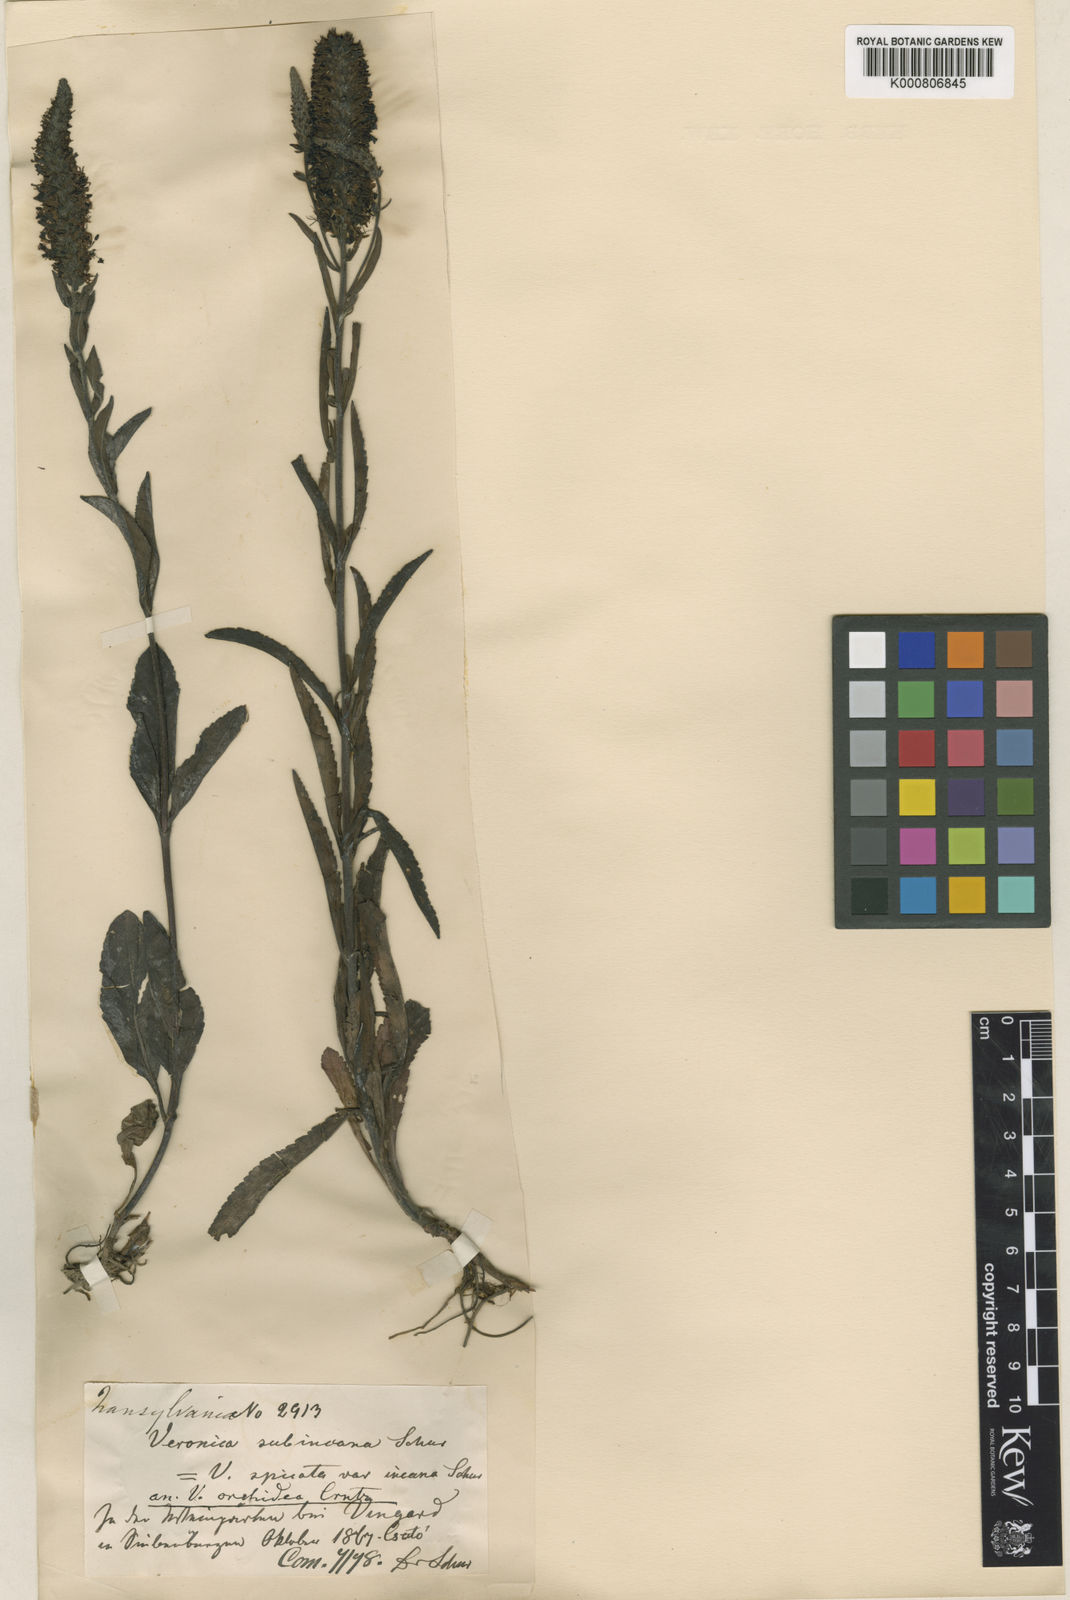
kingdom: Plantae
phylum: Tracheophyta
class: Magnoliopsida
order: Lamiales
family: Plantaginaceae
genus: Veronica
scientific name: Veronica spicata
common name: Spiked speedwell
